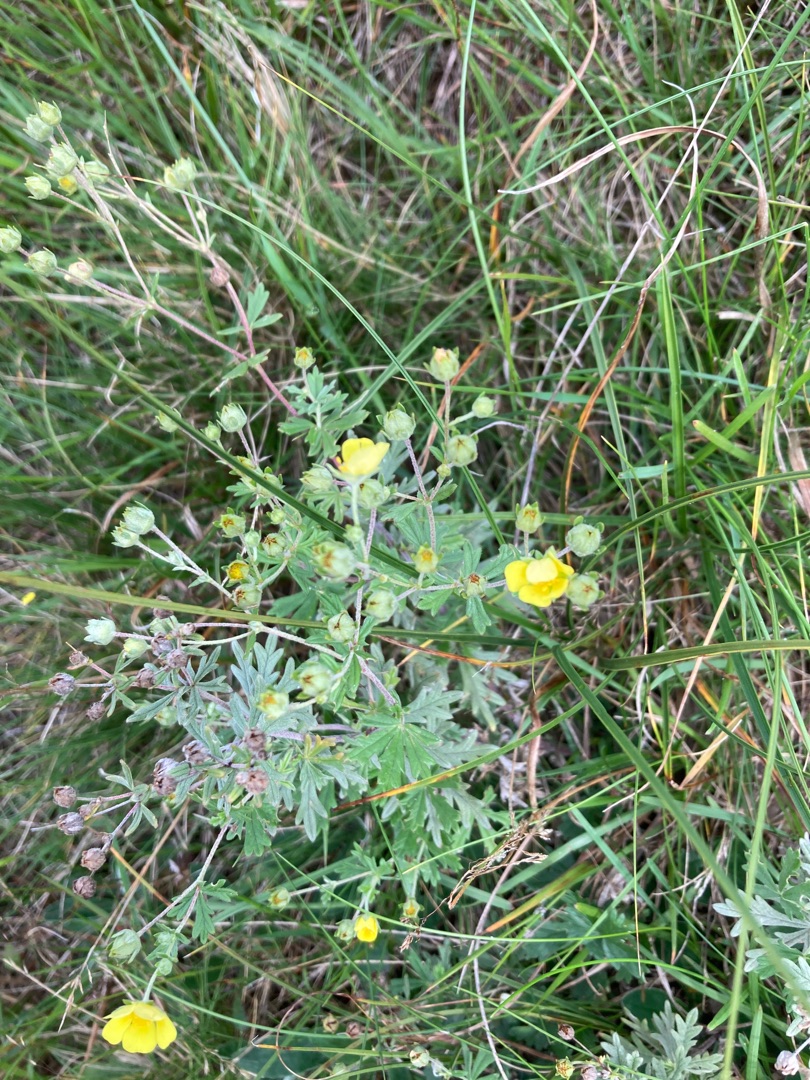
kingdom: Plantae
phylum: Tracheophyta
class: Magnoliopsida
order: Rosales
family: Rosaceae
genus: Potentilla
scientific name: Potentilla argentea
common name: Sølv-potentil
